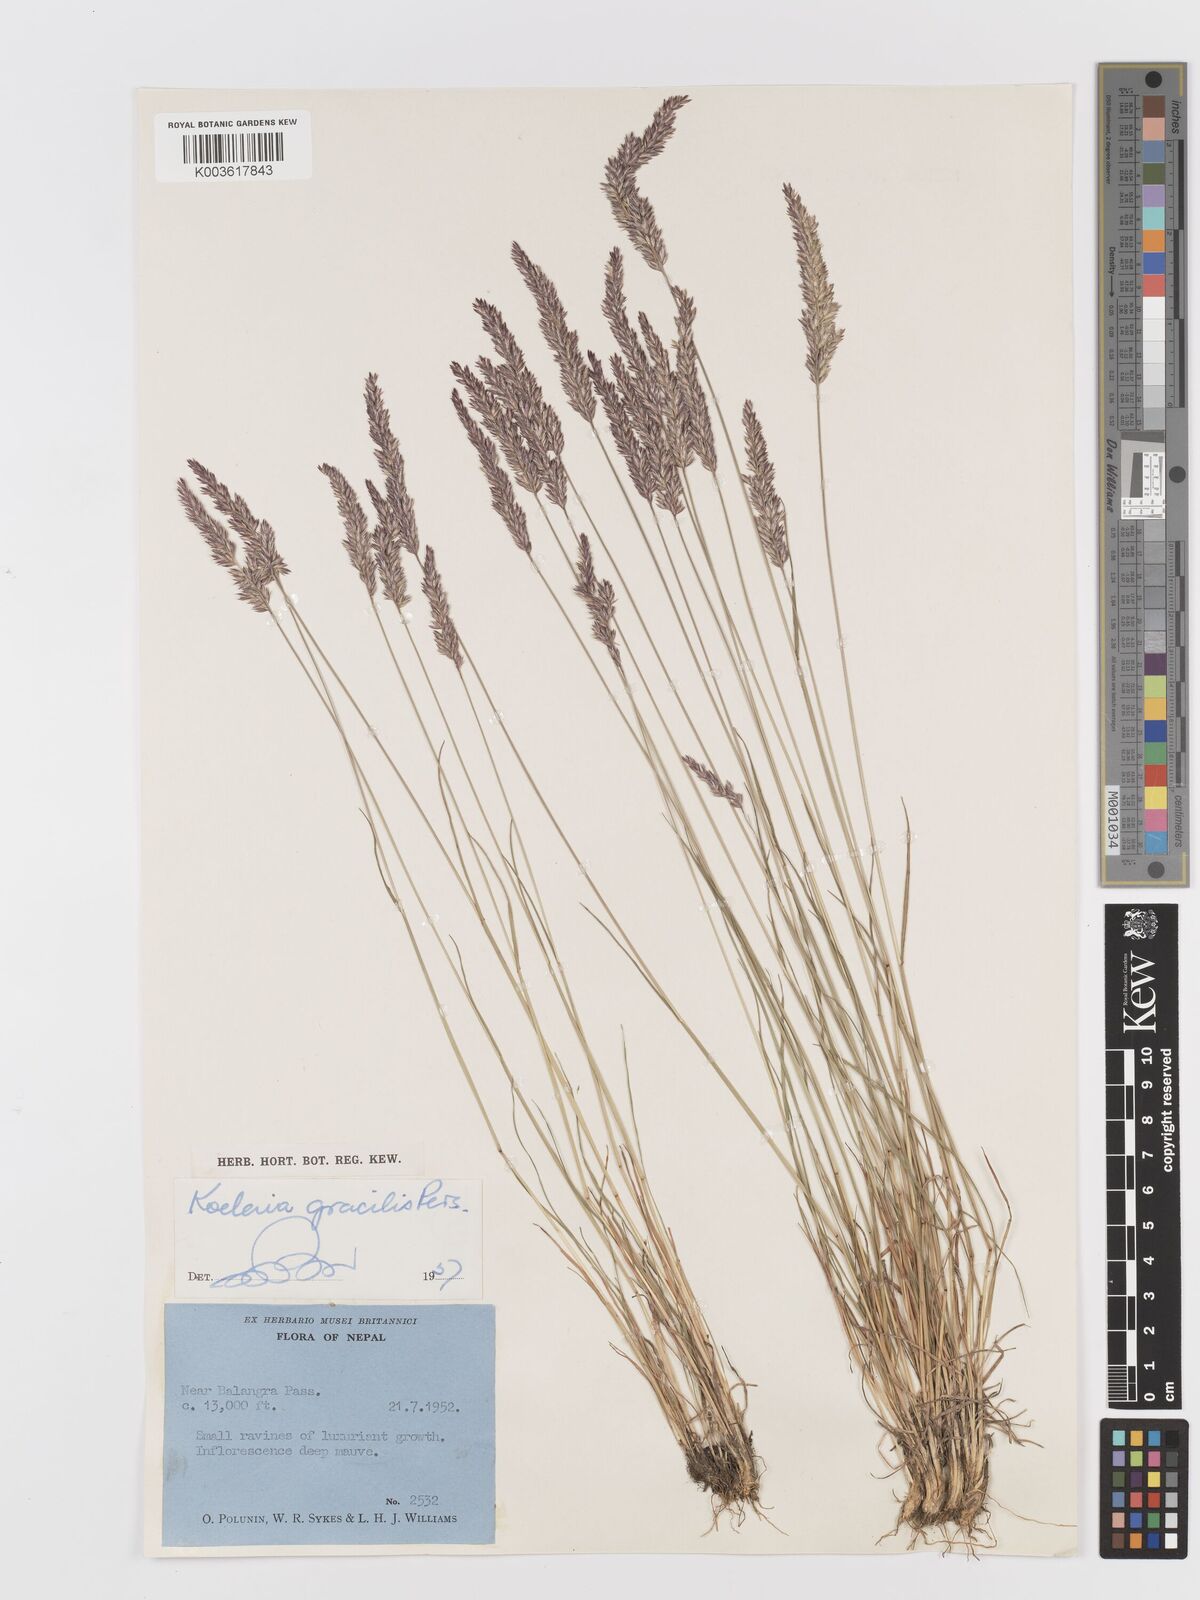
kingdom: Plantae
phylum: Tracheophyta
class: Liliopsida
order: Poales
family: Poaceae
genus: Koeleria
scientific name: Koeleria macrantha
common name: Crested hair-grass
